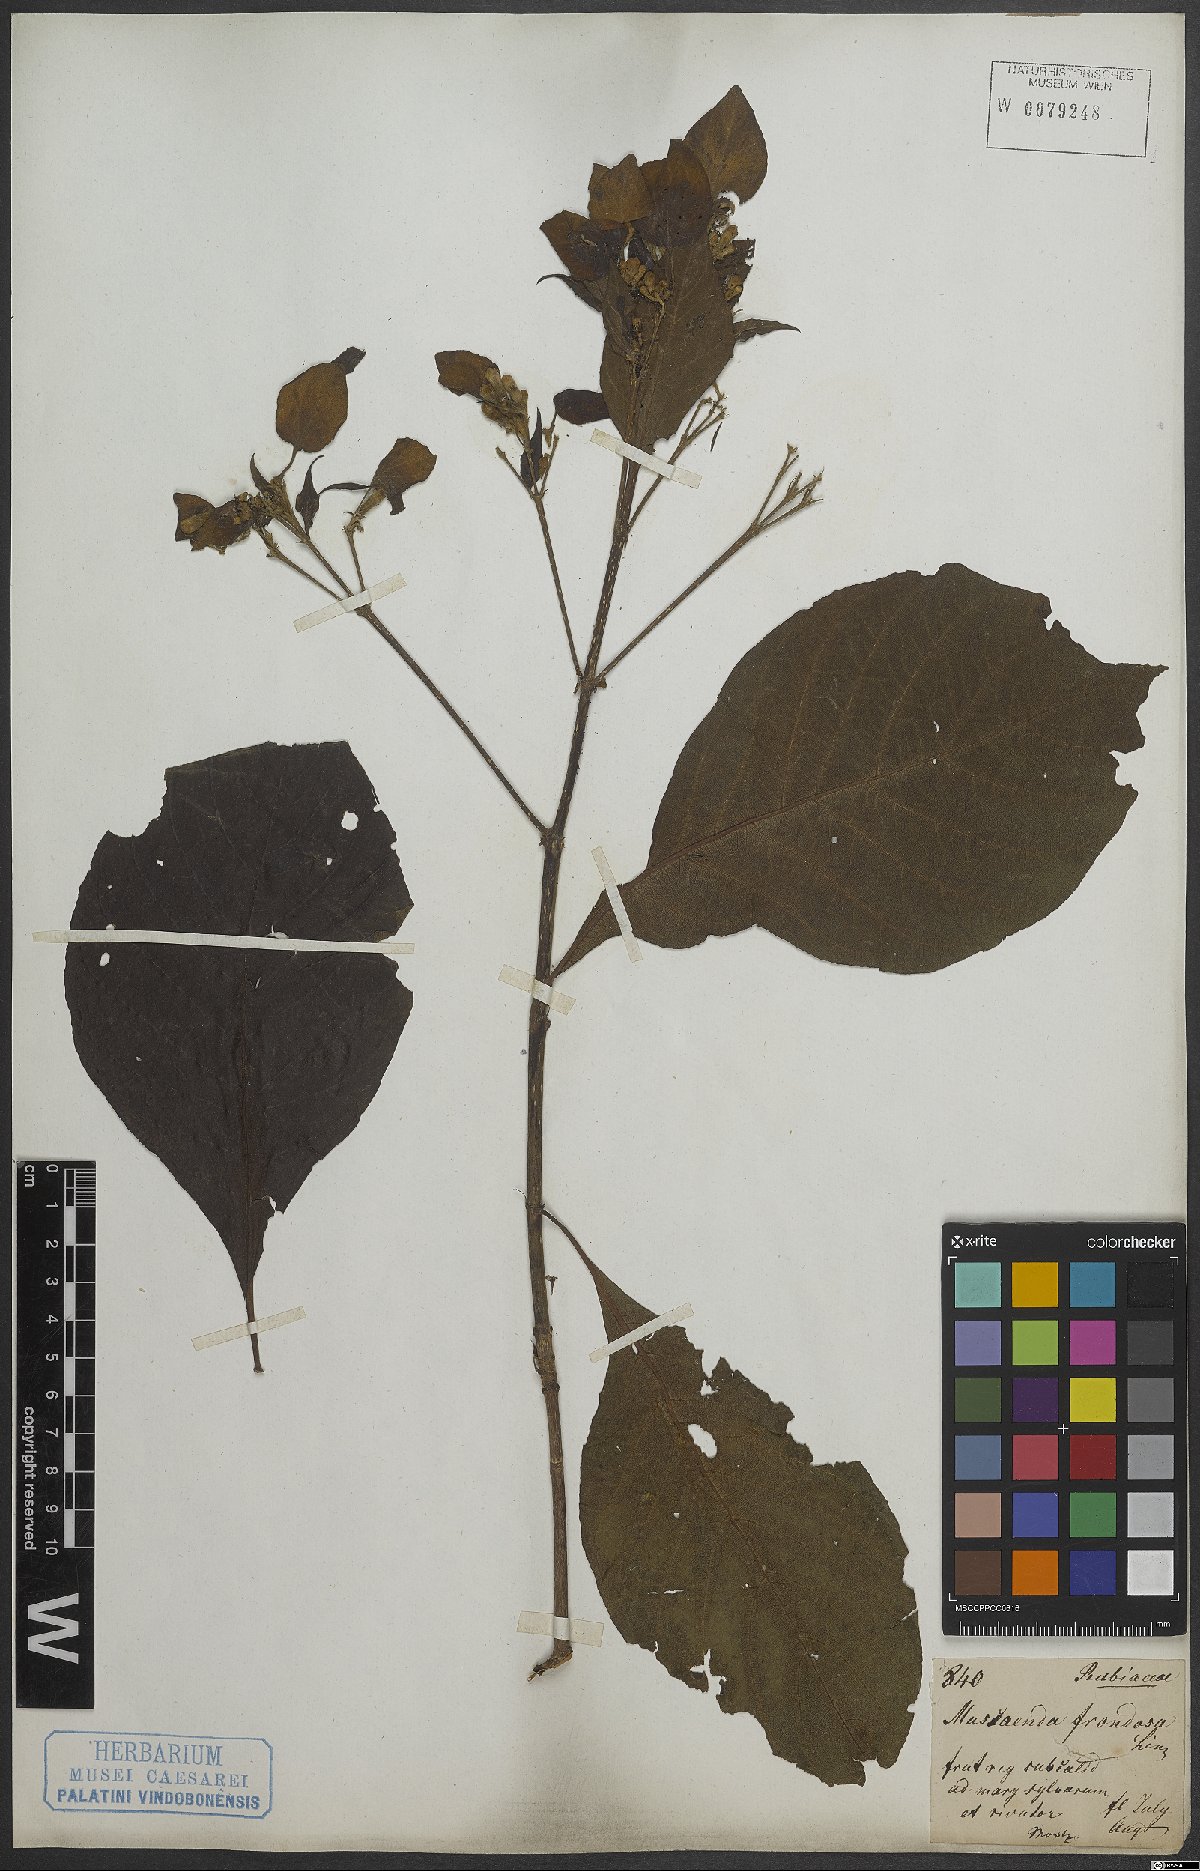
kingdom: Plantae
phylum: Tracheophyta
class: Magnoliopsida
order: Gentianales
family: Rubiaceae
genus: Pogonopus
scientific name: Pogonopus speciosus
